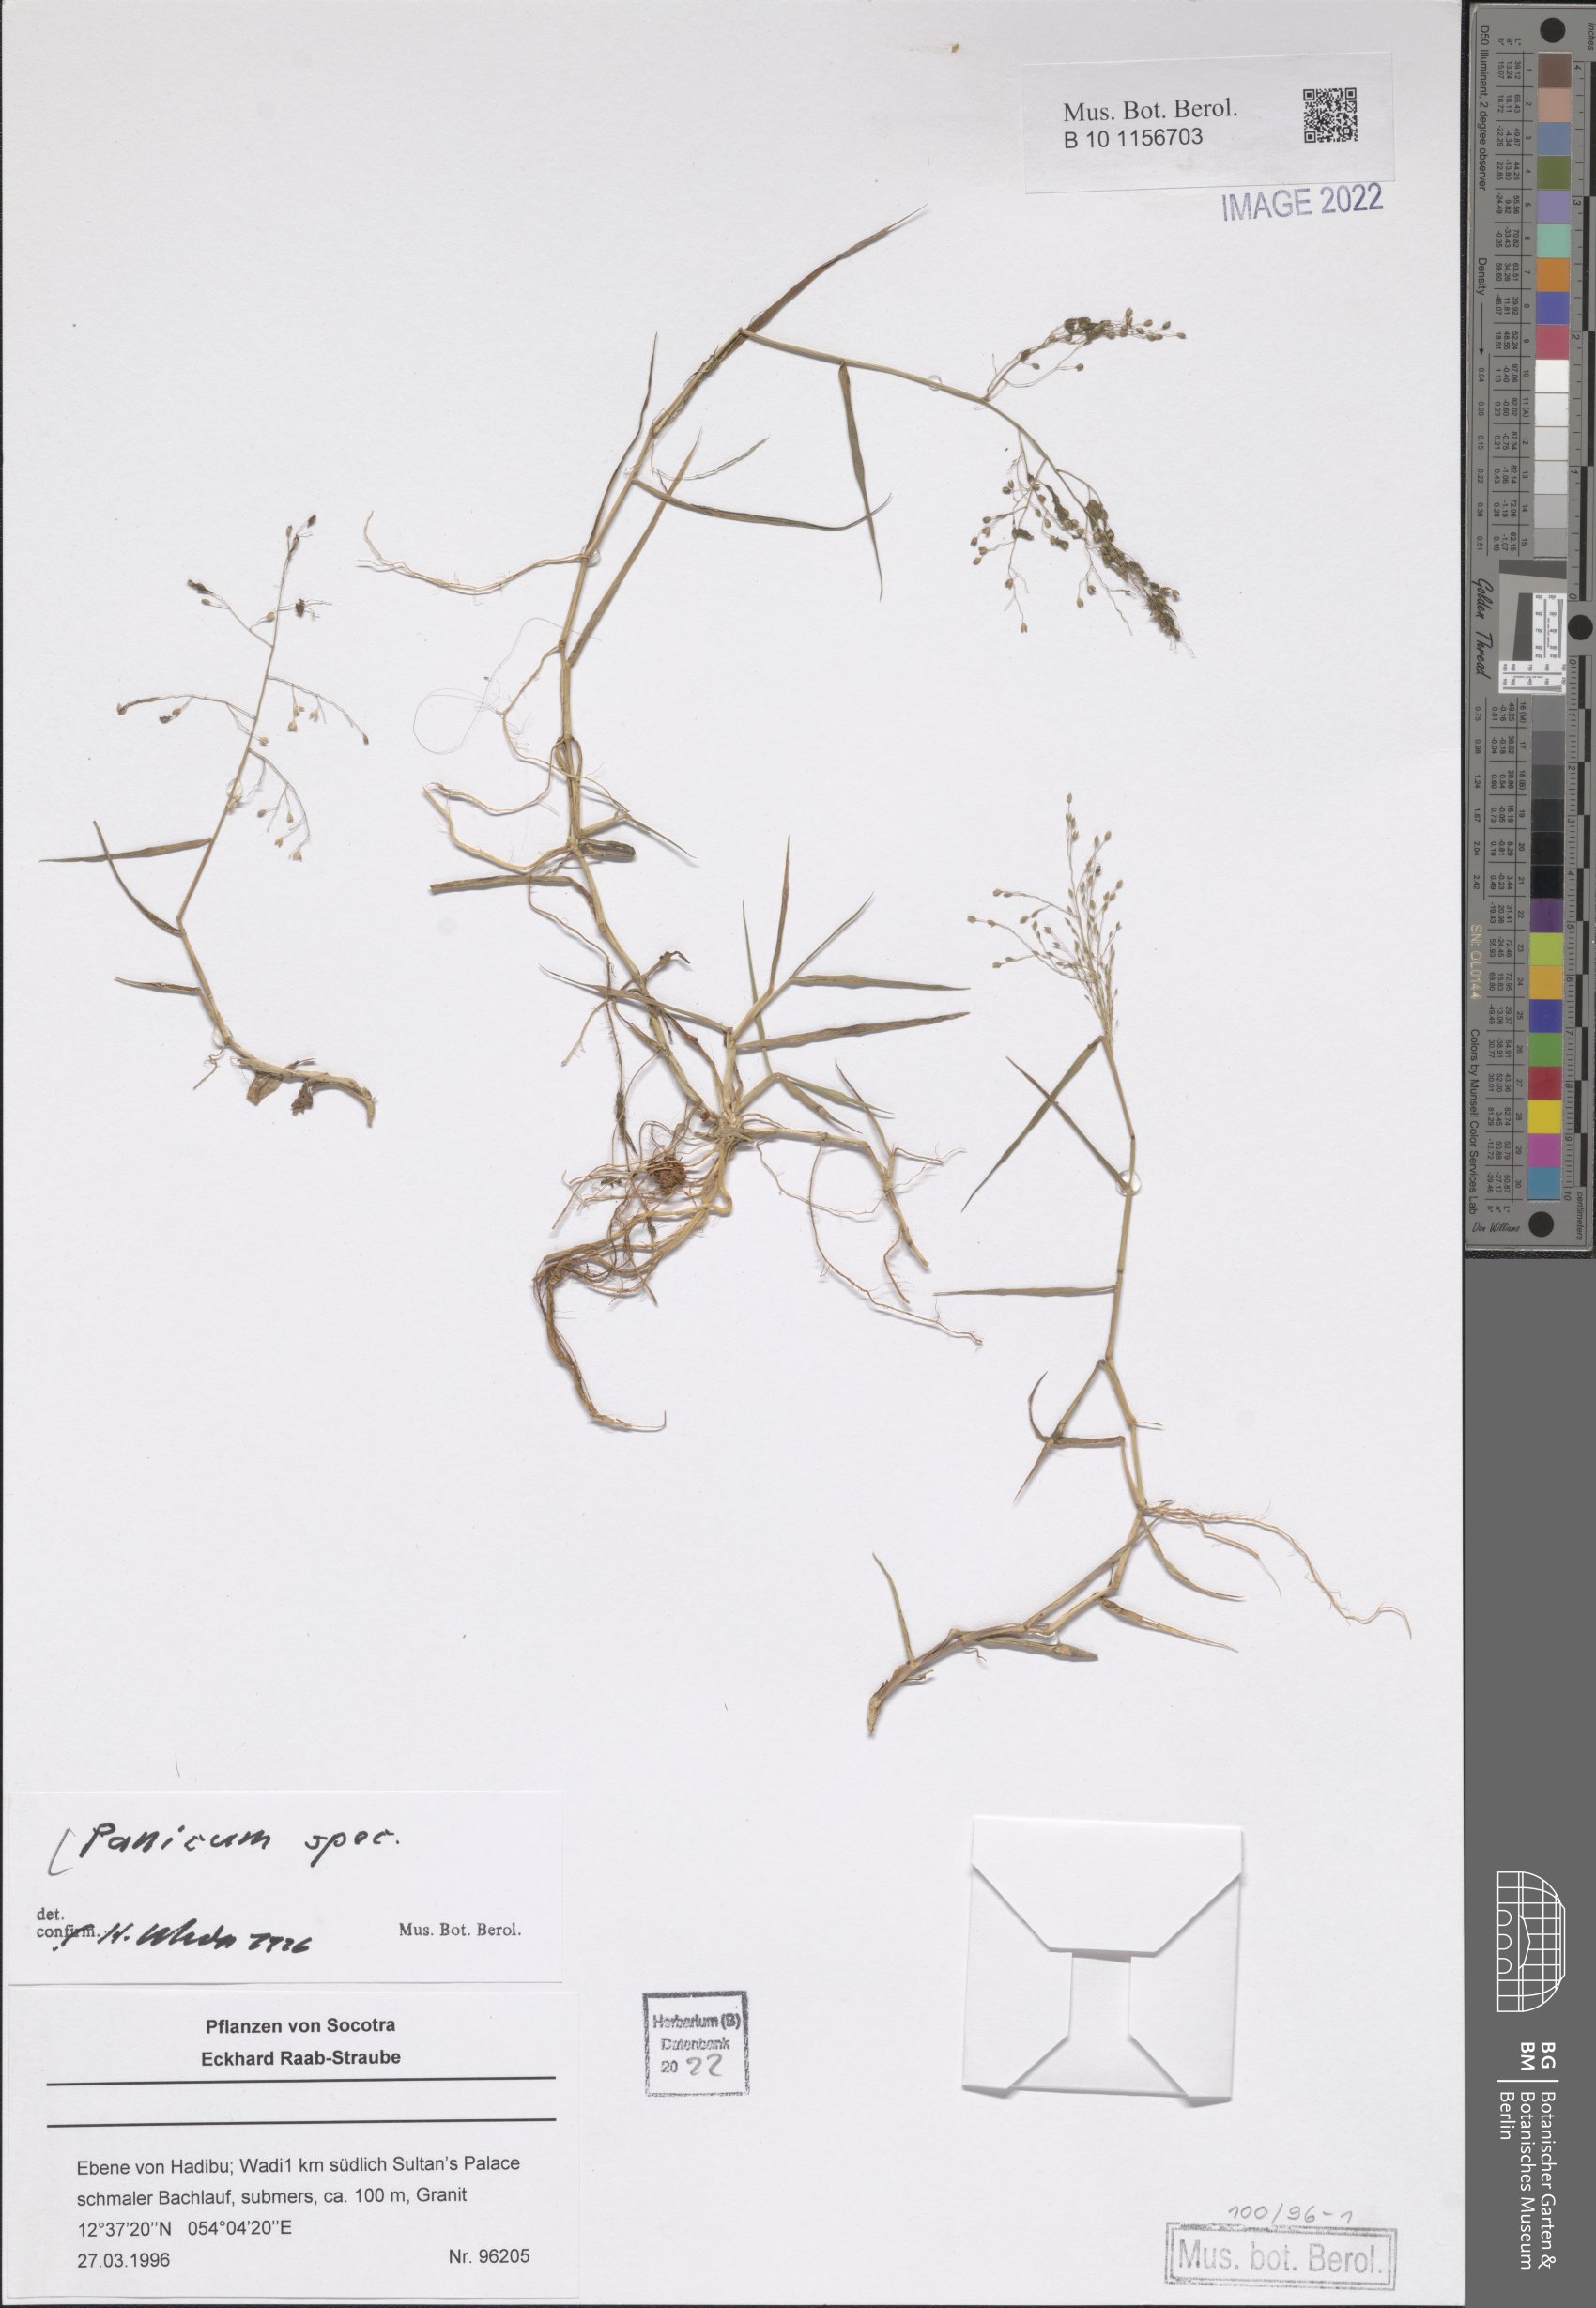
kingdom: Plantae
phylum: Tracheophyta
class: Liliopsida
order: Poales
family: Poaceae
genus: Panicum
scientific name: Panicum
